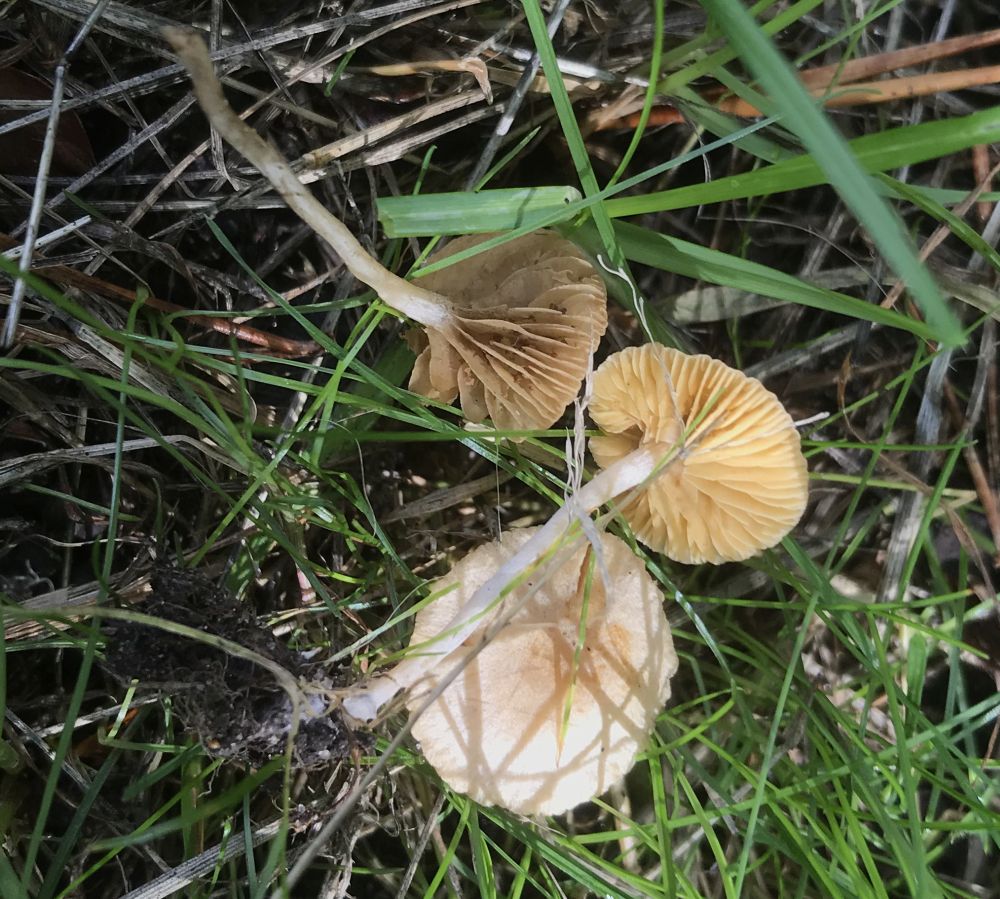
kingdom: Fungi
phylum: Basidiomycota
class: Agaricomycetes
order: Agaricales
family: Tubariaceae
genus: Tubaria
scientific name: Tubaria dispersa
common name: tjørne-fnughat
